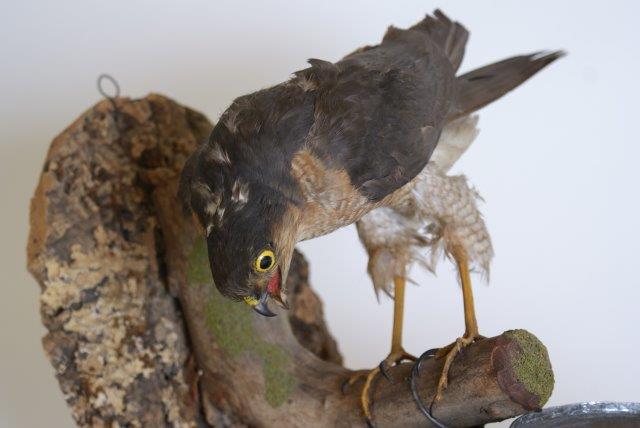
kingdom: Animalia
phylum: Chordata
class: Aves
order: Accipitriformes
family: Accipitridae
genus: Accipiter
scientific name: Accipiter nisus
